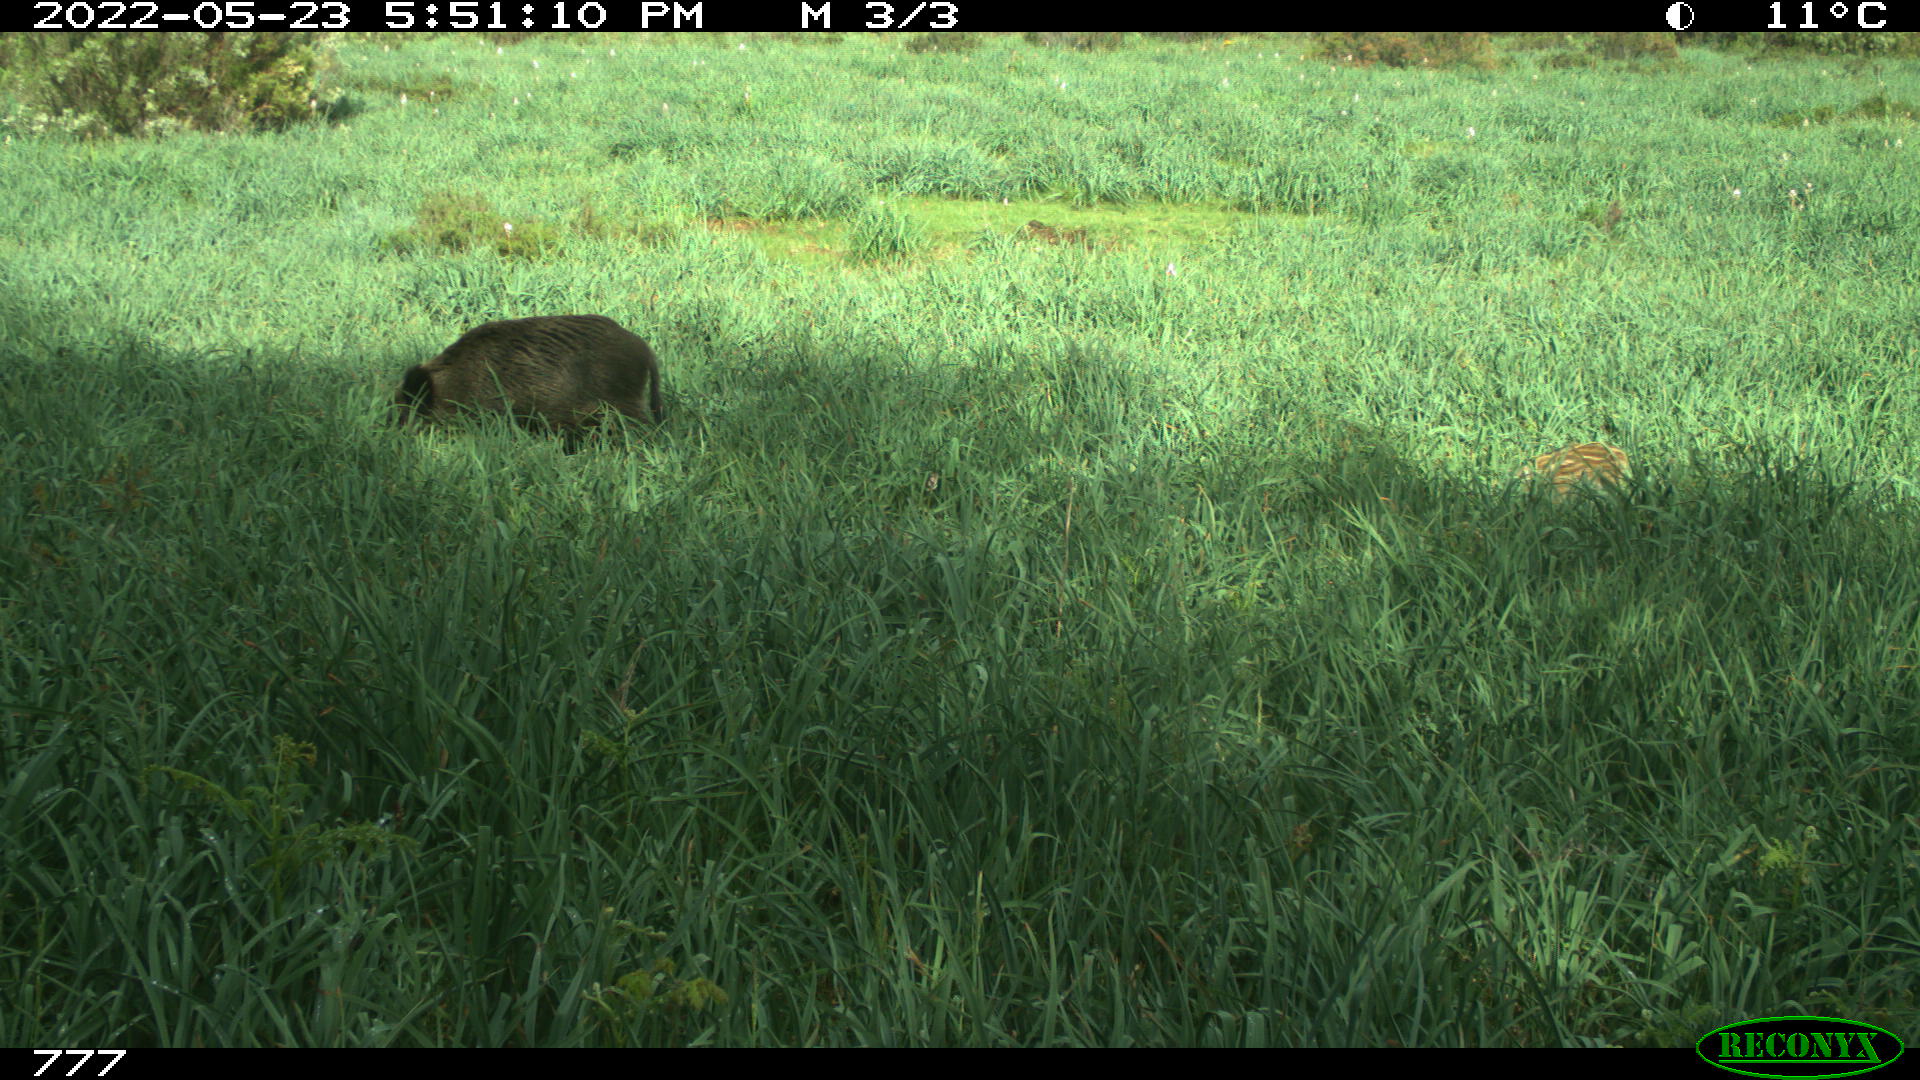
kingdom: Animalia
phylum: Chordata
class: Mammalia
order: Artiodactyla
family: Suidae
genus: Sus
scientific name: Sus scrofa
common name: Wild boar
